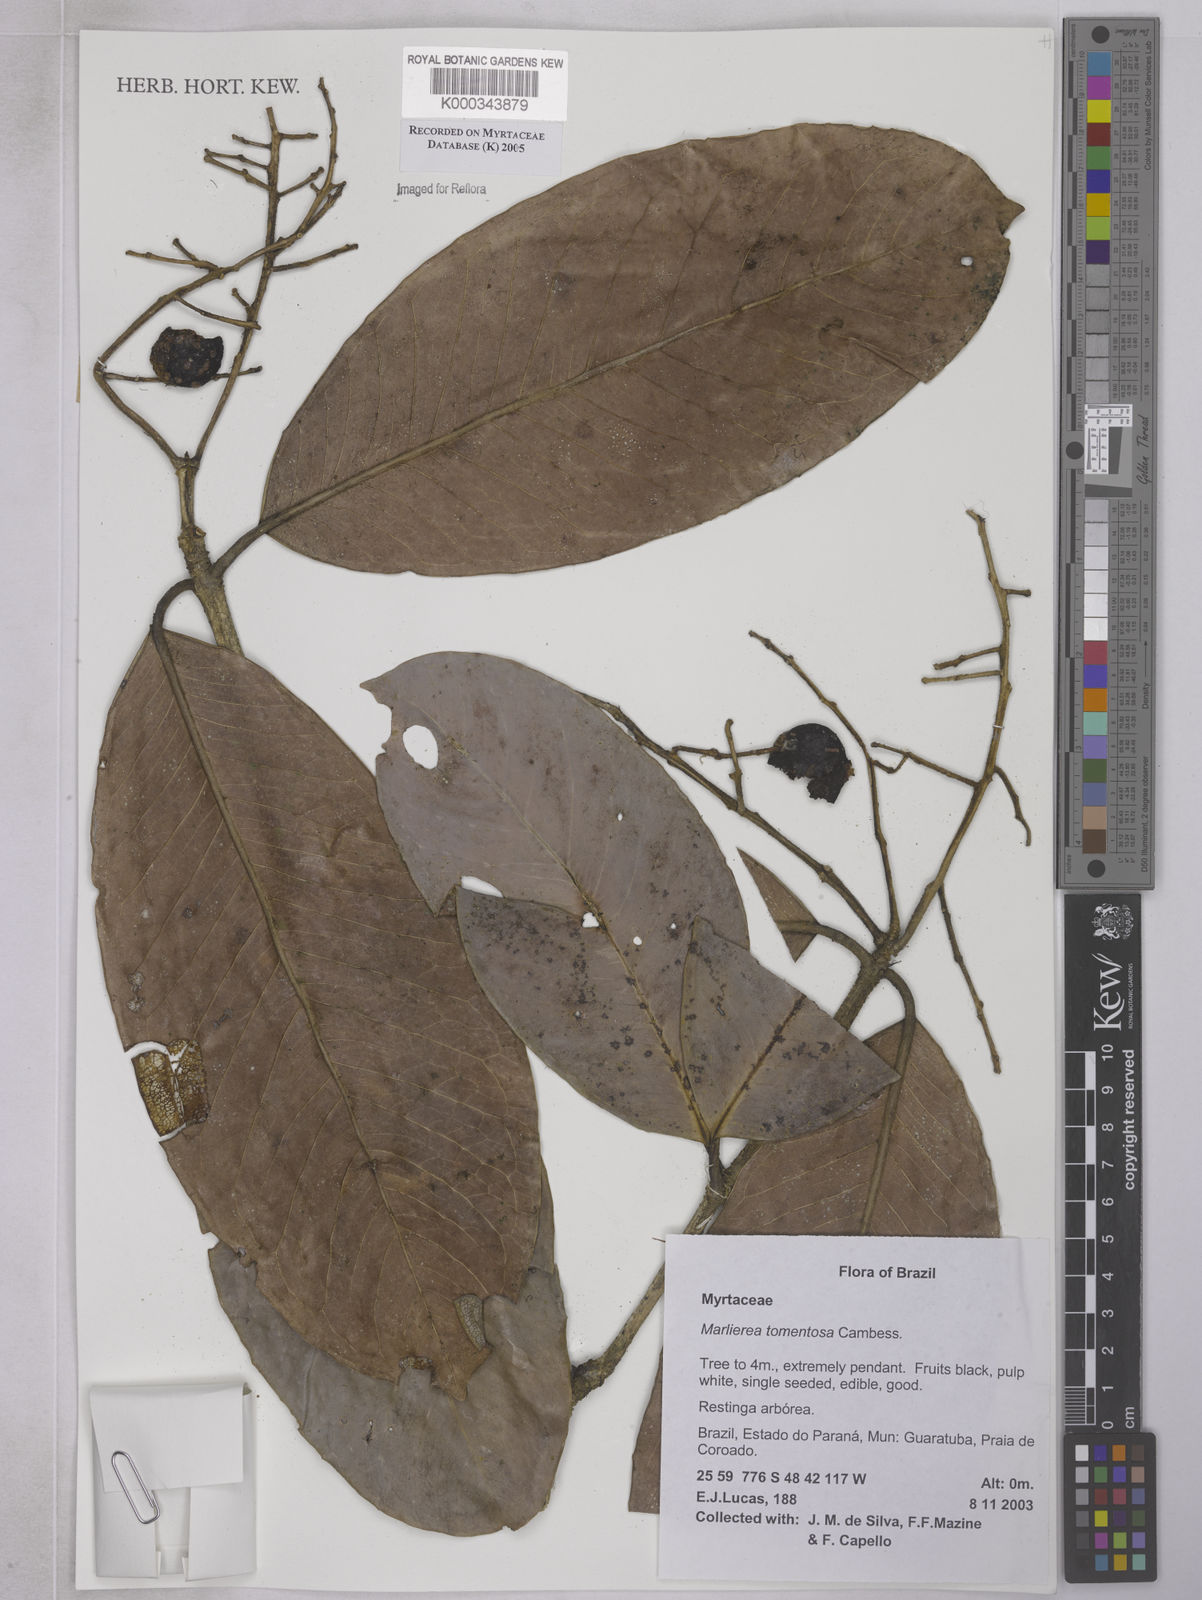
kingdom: Plantae
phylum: Tracheophyta
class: Magnoliopsida
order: Myrtales
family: Myrtaceae
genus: Myrcia
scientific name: Myrcia neotomentosa
